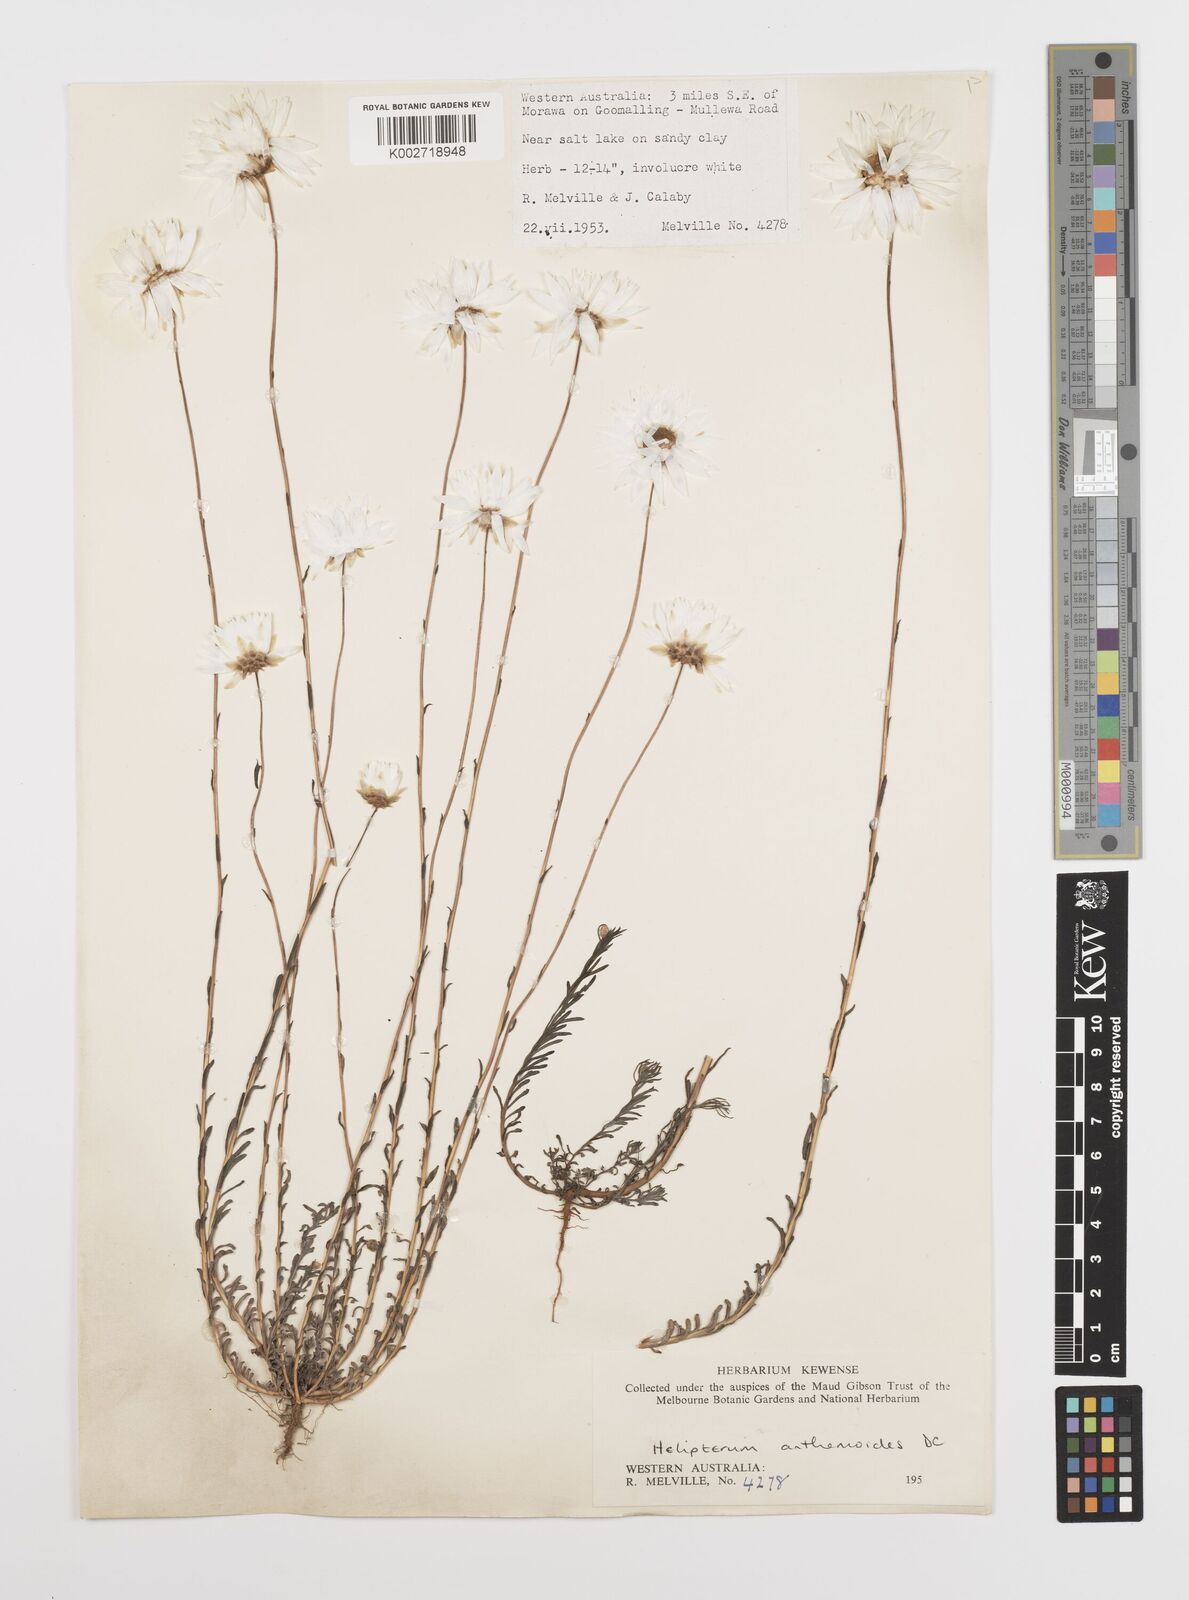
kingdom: Plantae
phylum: Tracheophyta
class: Magnoliopsida
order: Asterales
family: Asteraceae
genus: Rhodanthe
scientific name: Rhodanthe anthemoides
